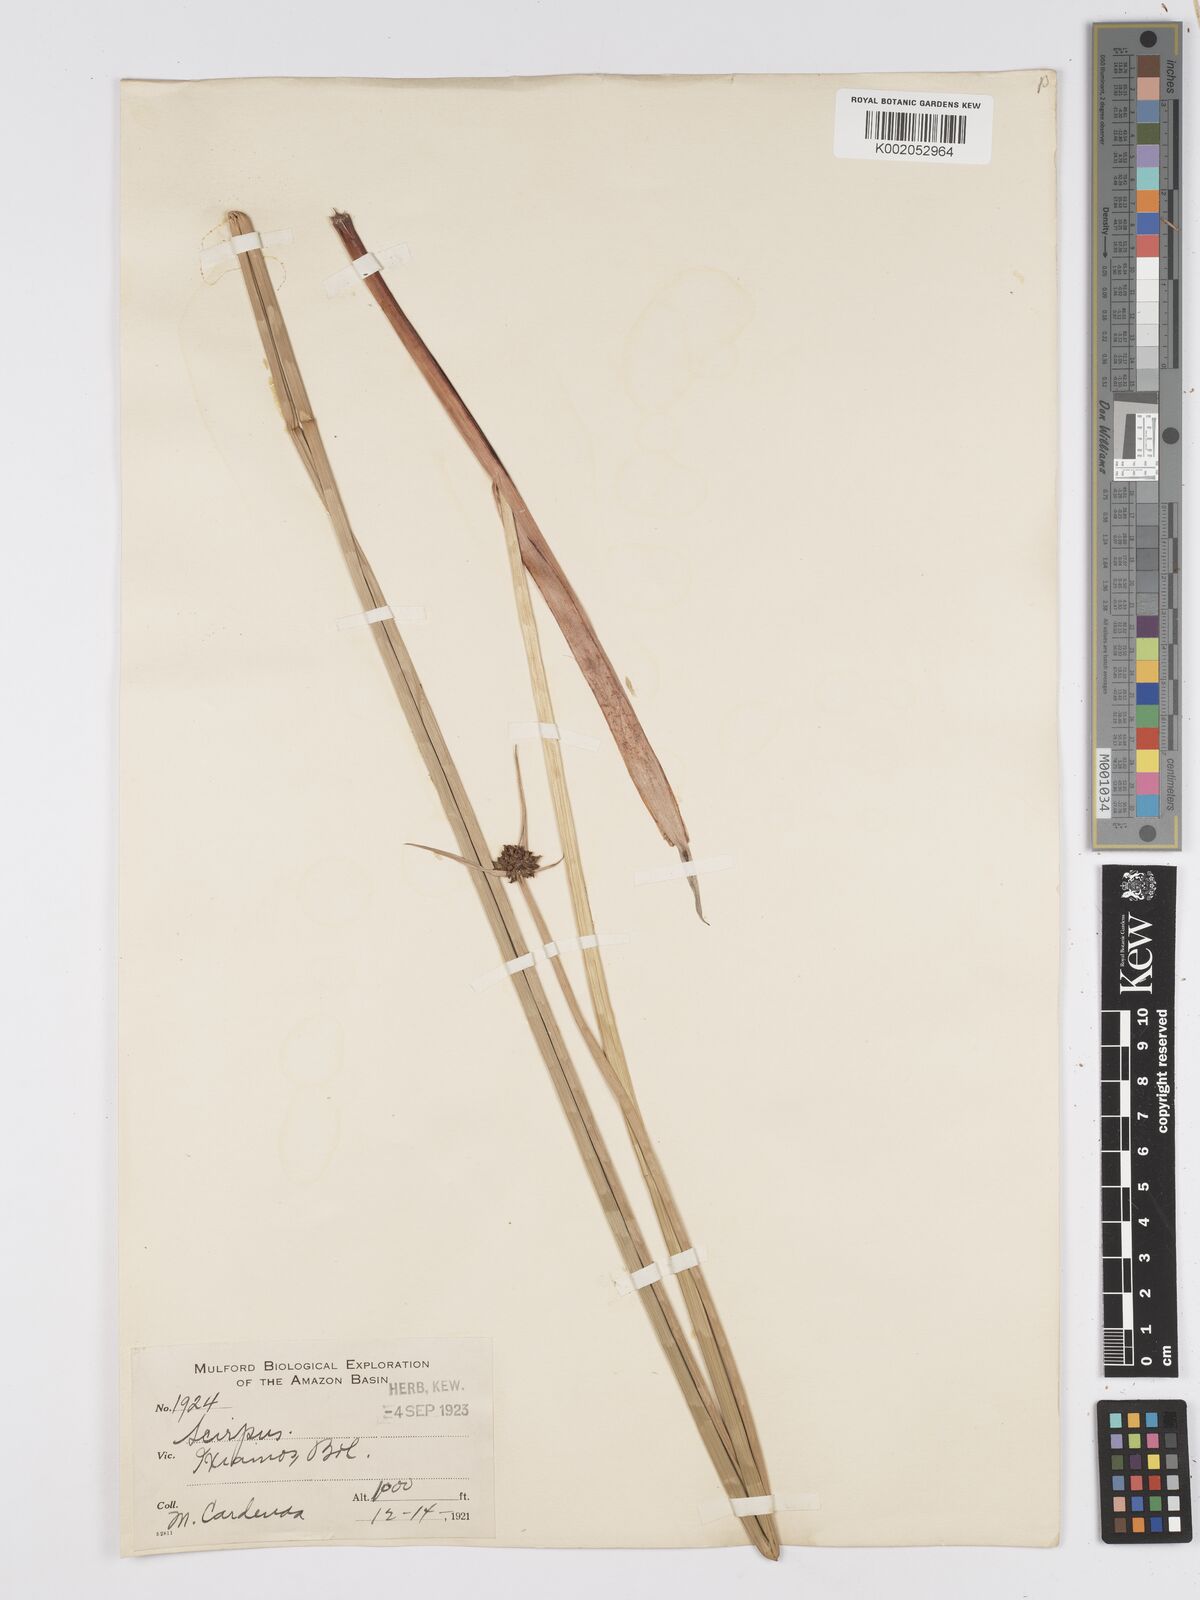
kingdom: Plantae
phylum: Tracheophyta
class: Liliopsida
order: Poales
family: Cyperaceae
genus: Scirpus
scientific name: Scirpus
